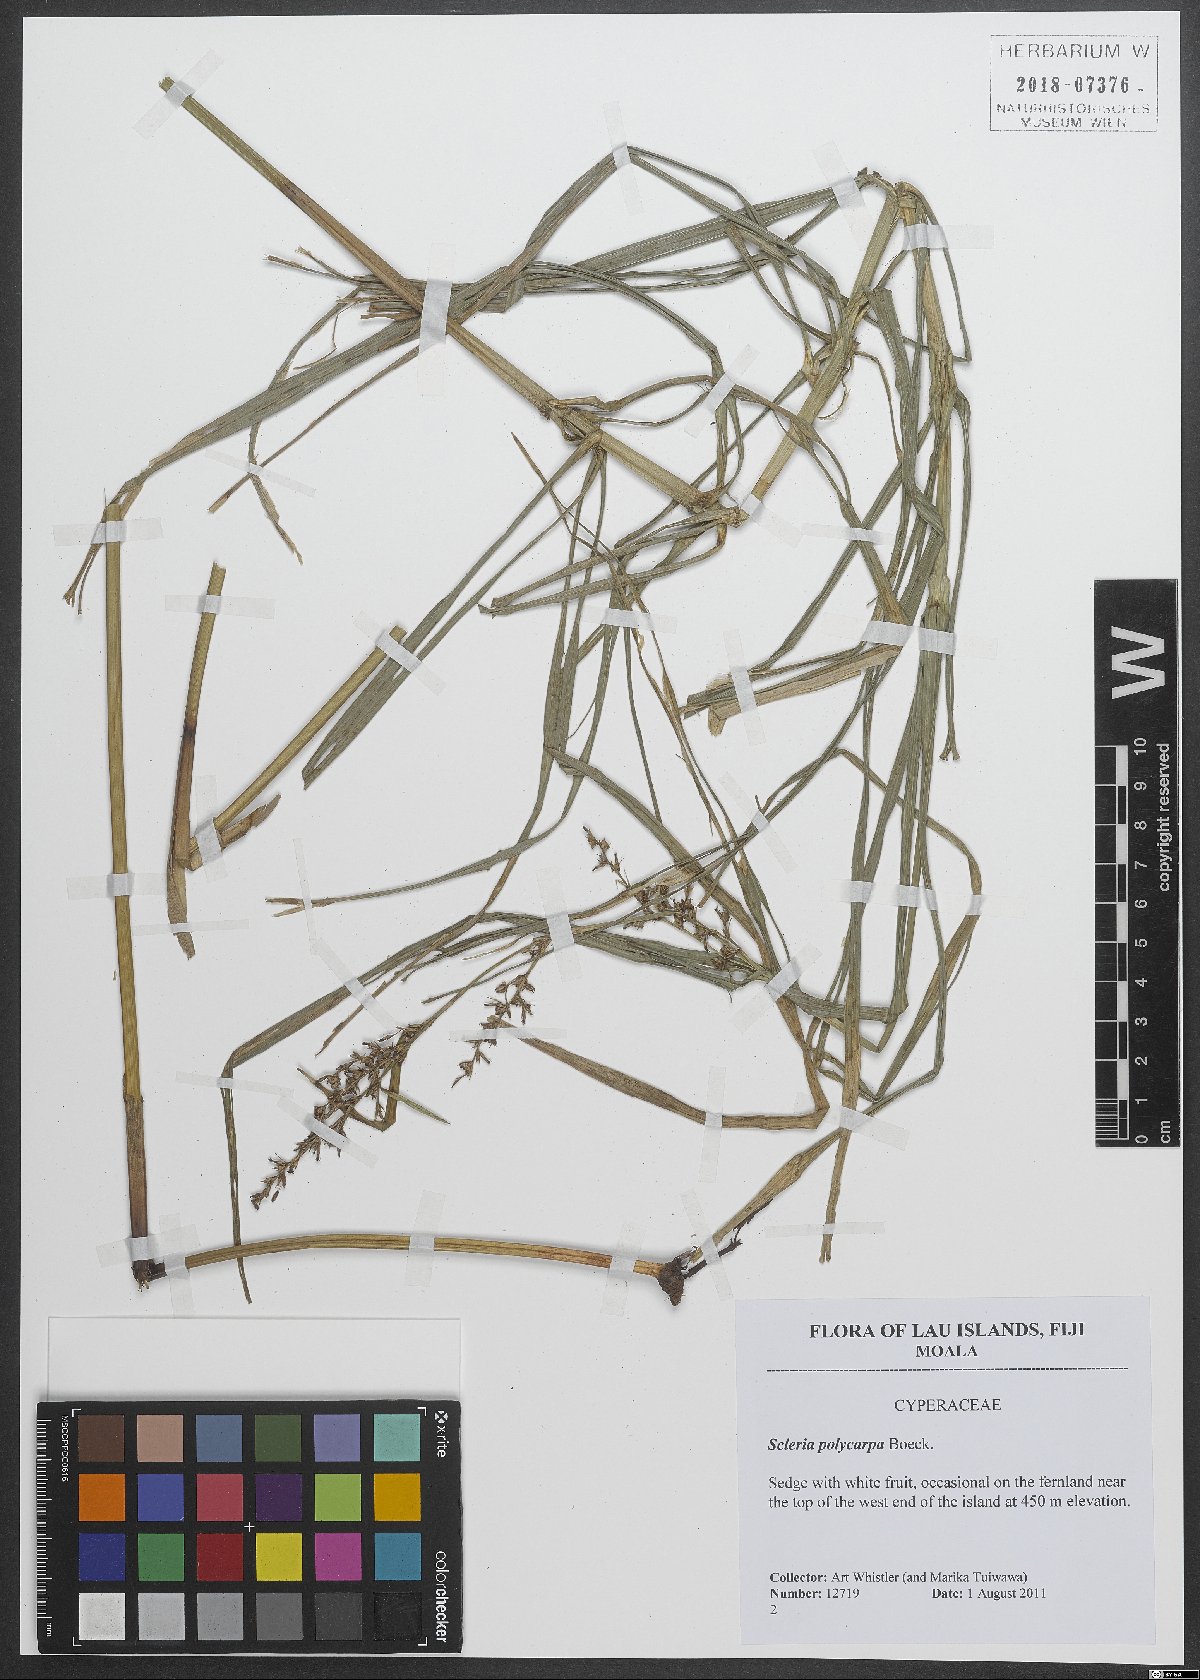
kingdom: Plantae
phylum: Tracheophyta
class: Liliopsida
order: Poales
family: Cyperaceae
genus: Scleria
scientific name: Scleria polycarpa
